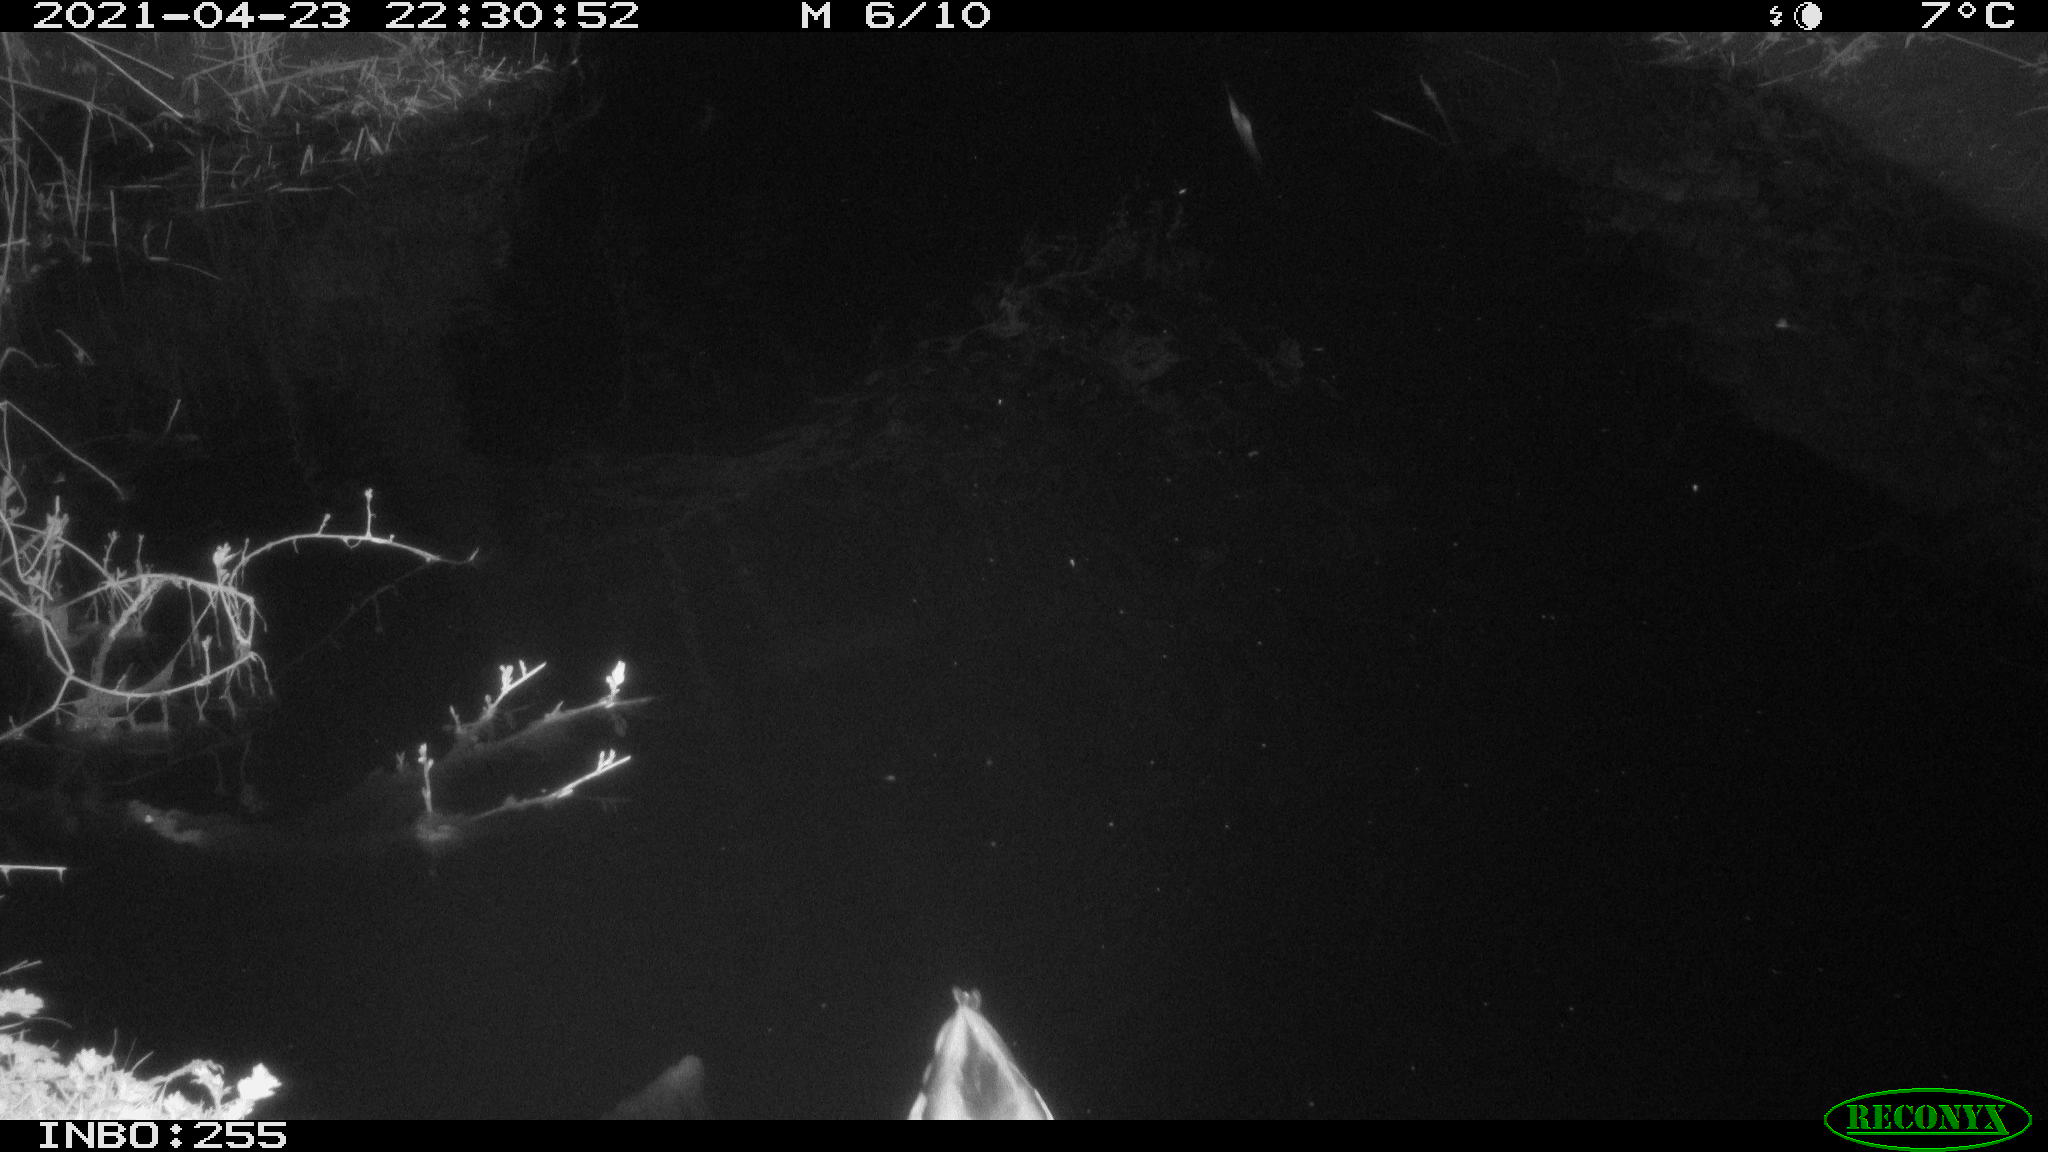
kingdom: Animalia
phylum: Chordata
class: Aves
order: Anseriformes
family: Anatidae
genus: Anas
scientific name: Anas platyrhynchos
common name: Mallard
